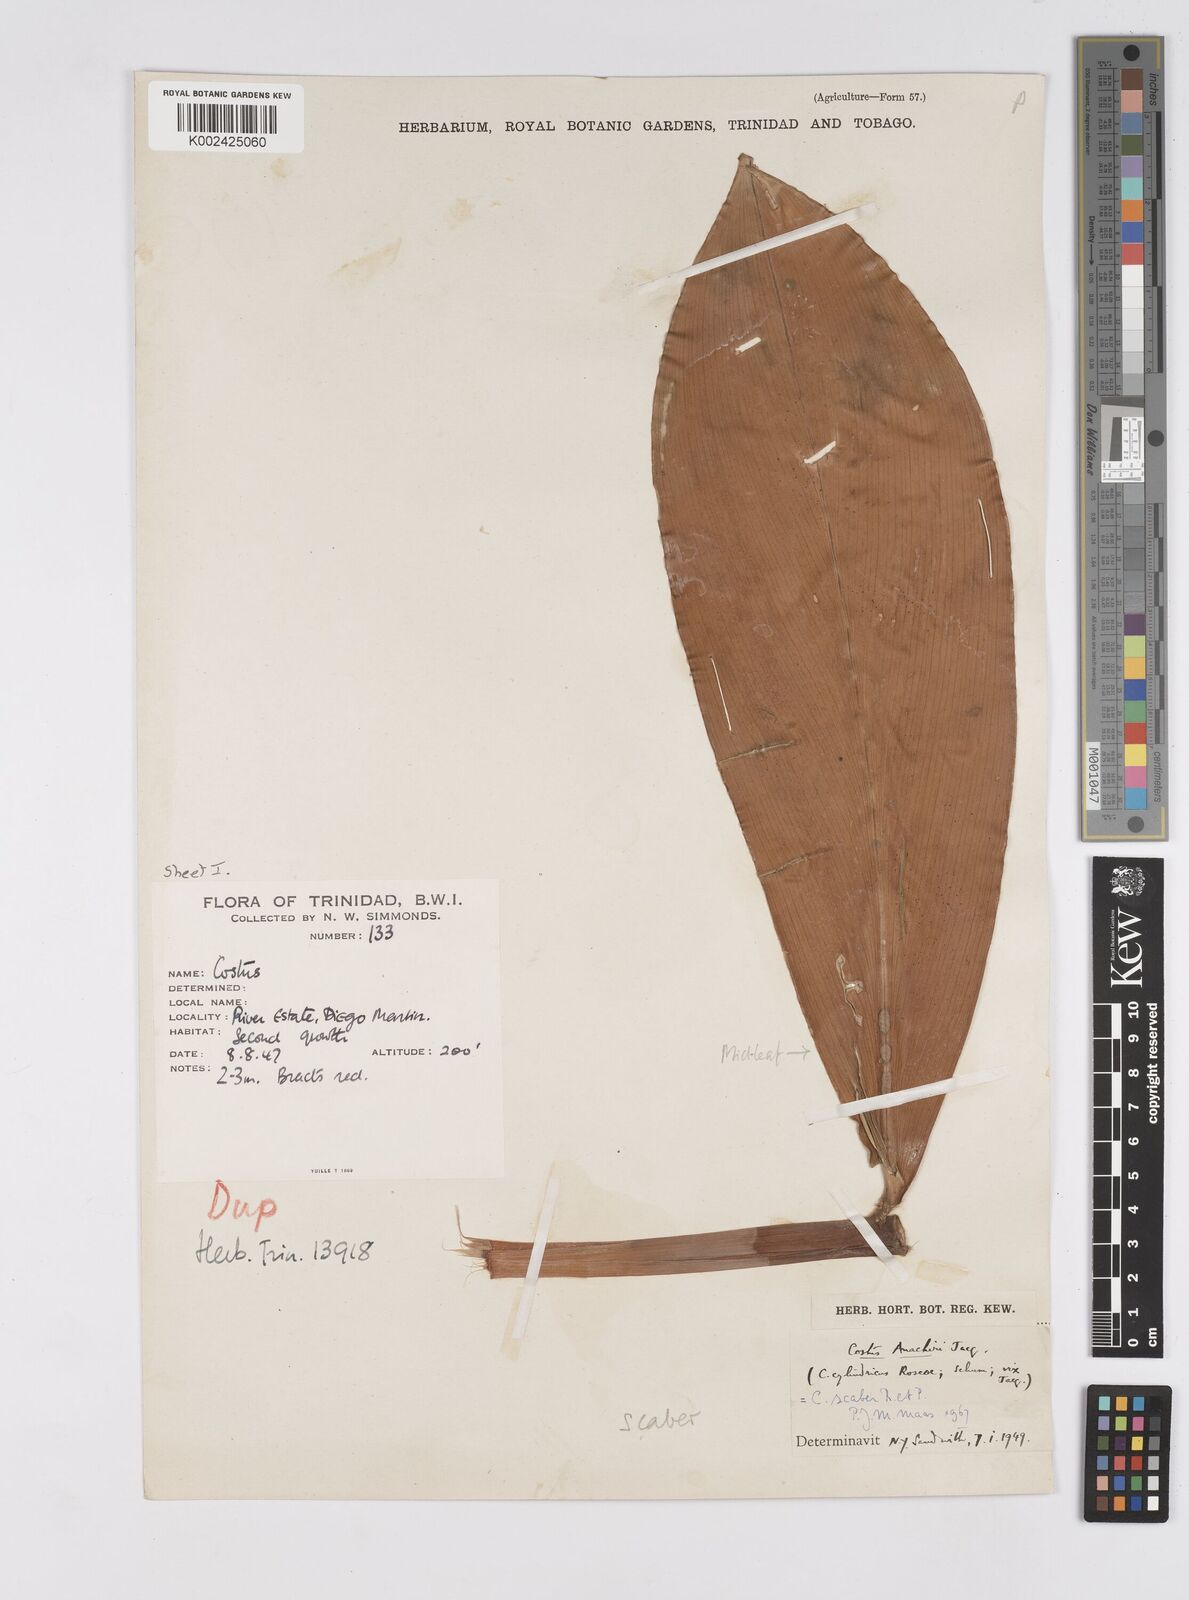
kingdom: Plantae
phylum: Tracheophyta
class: Liliopsida
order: Zingiberales
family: Costaceae
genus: Costus
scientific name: Costus scaber
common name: Spiral head ginger
